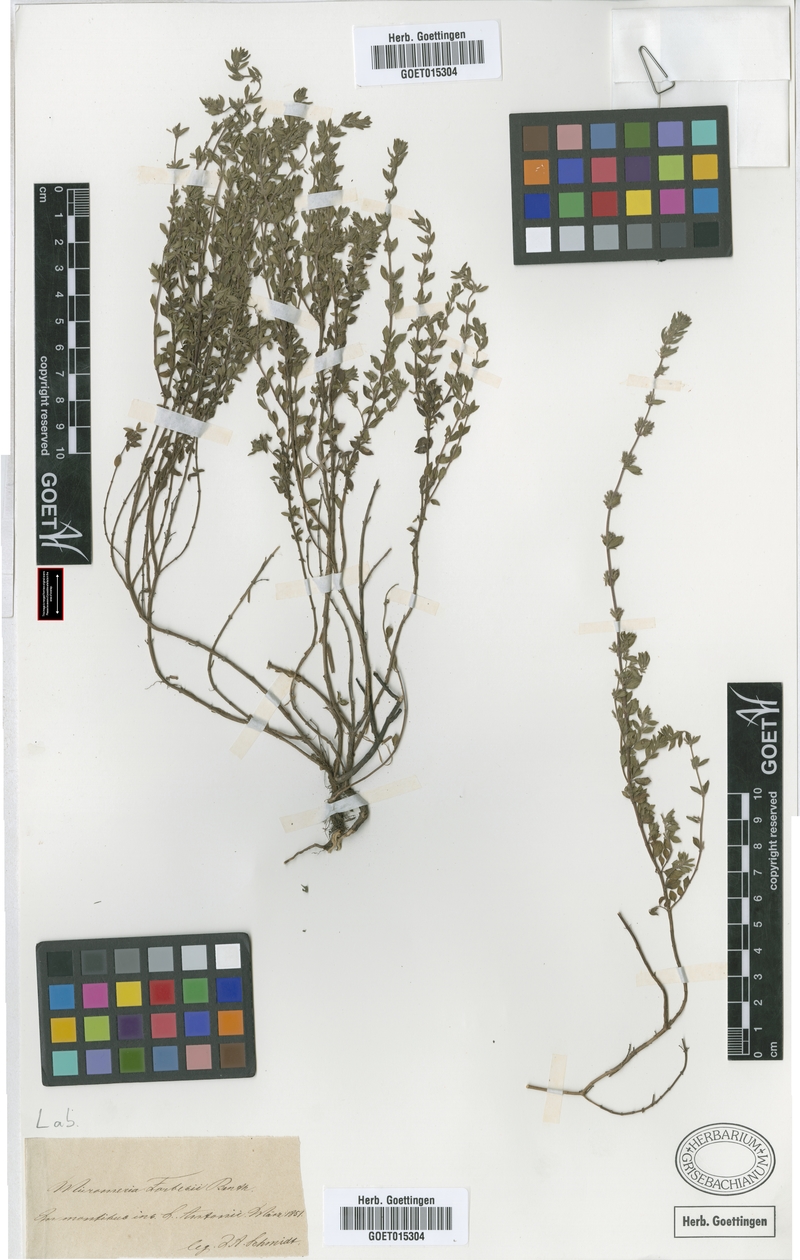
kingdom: Plantae
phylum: Tracheophyta
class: Magnoliopsida
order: Lamiales
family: Lamiaceae
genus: Micromeria
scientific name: Micromeria forbesii
